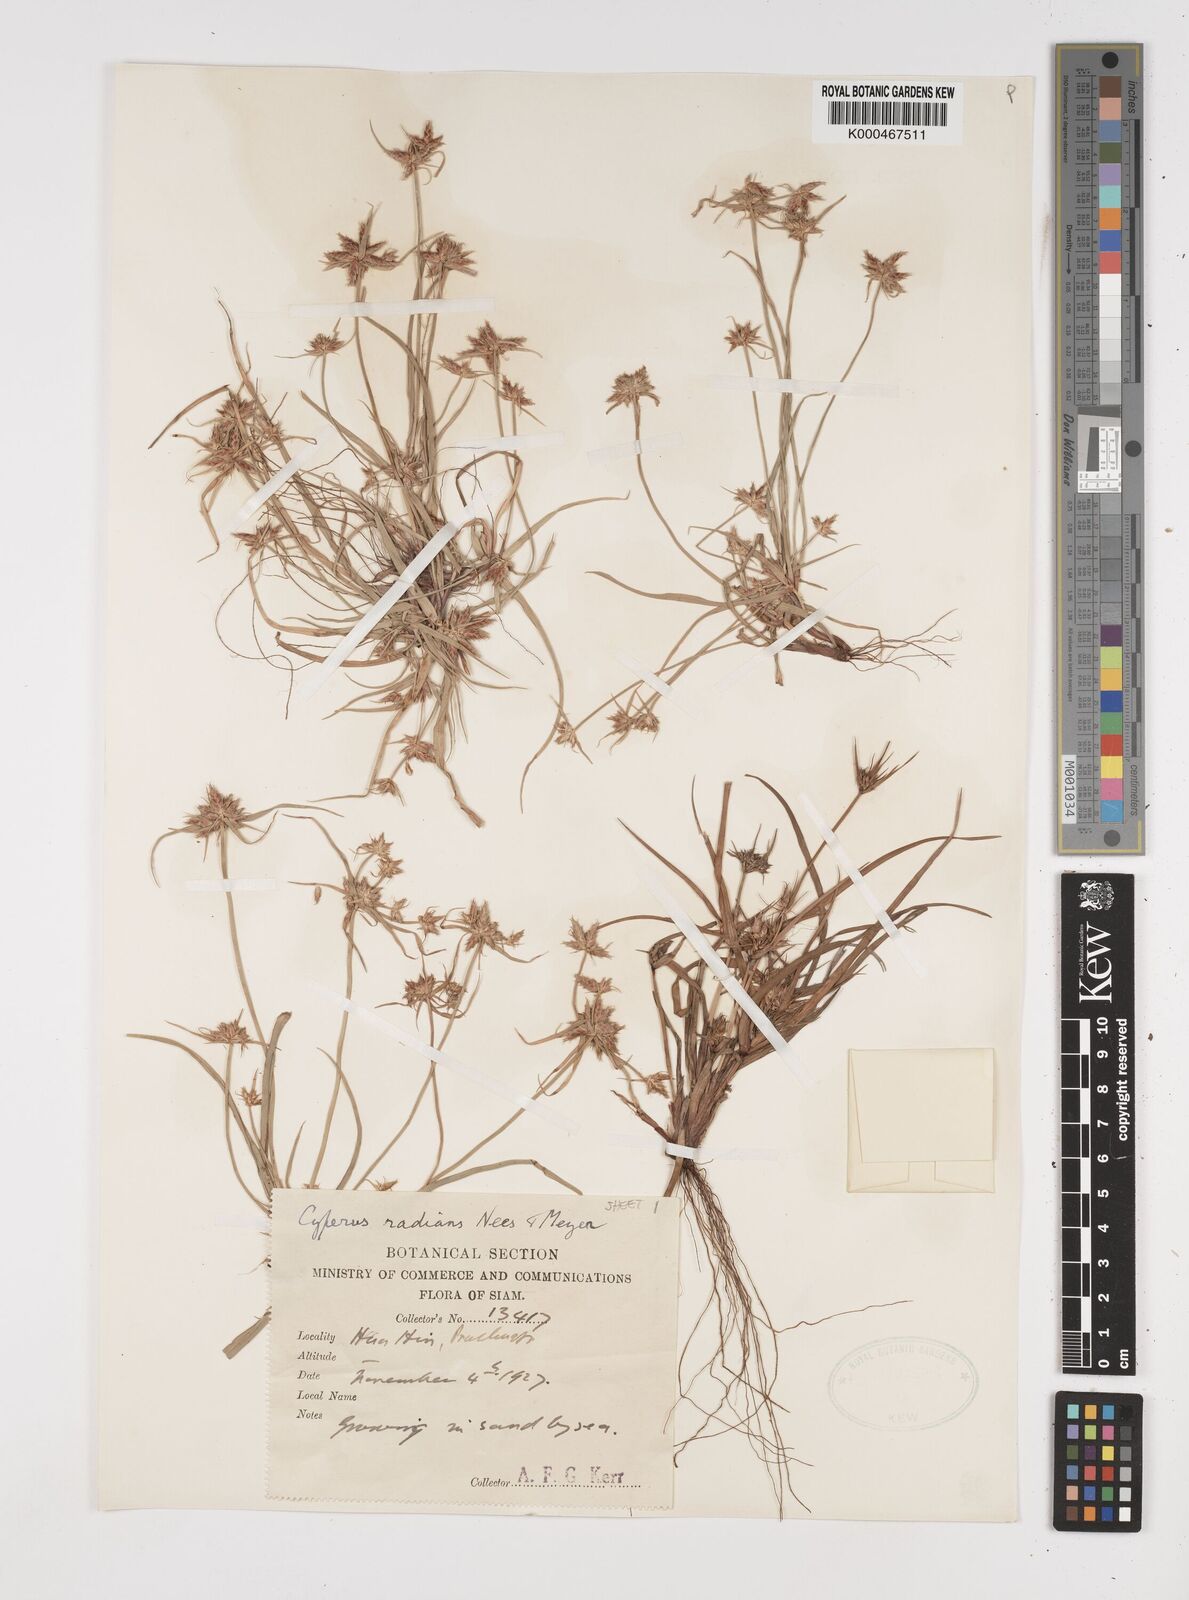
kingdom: Plantae
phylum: Tracheophyta
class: Liliopsida
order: Poales
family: Cyperaceae
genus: Cyperus
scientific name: Cyperus radians
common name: Short-stem cyperus
